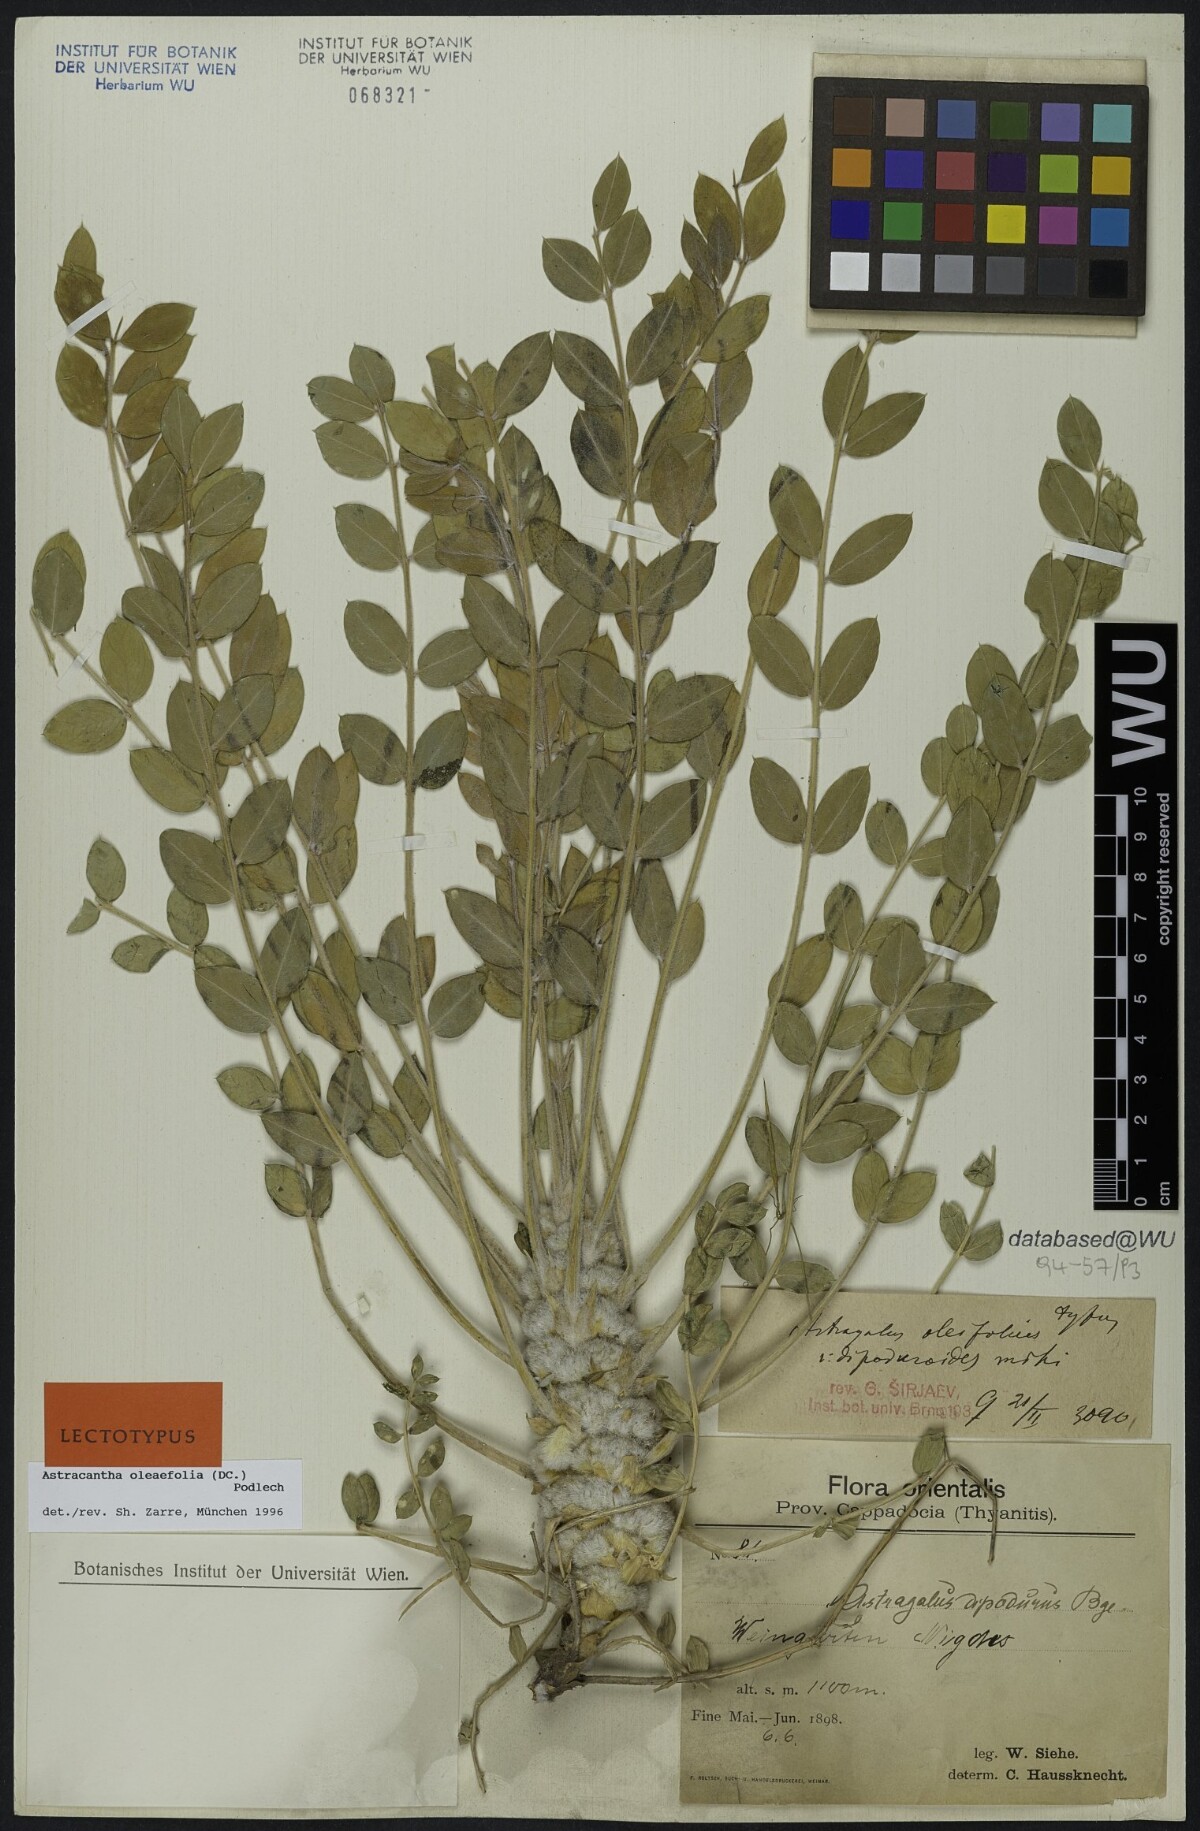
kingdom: Plantae
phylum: Tracheophyta
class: Magnoliopsida
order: Fabales
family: Fabaceae
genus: Astragalus
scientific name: Astragalus dipodurus
